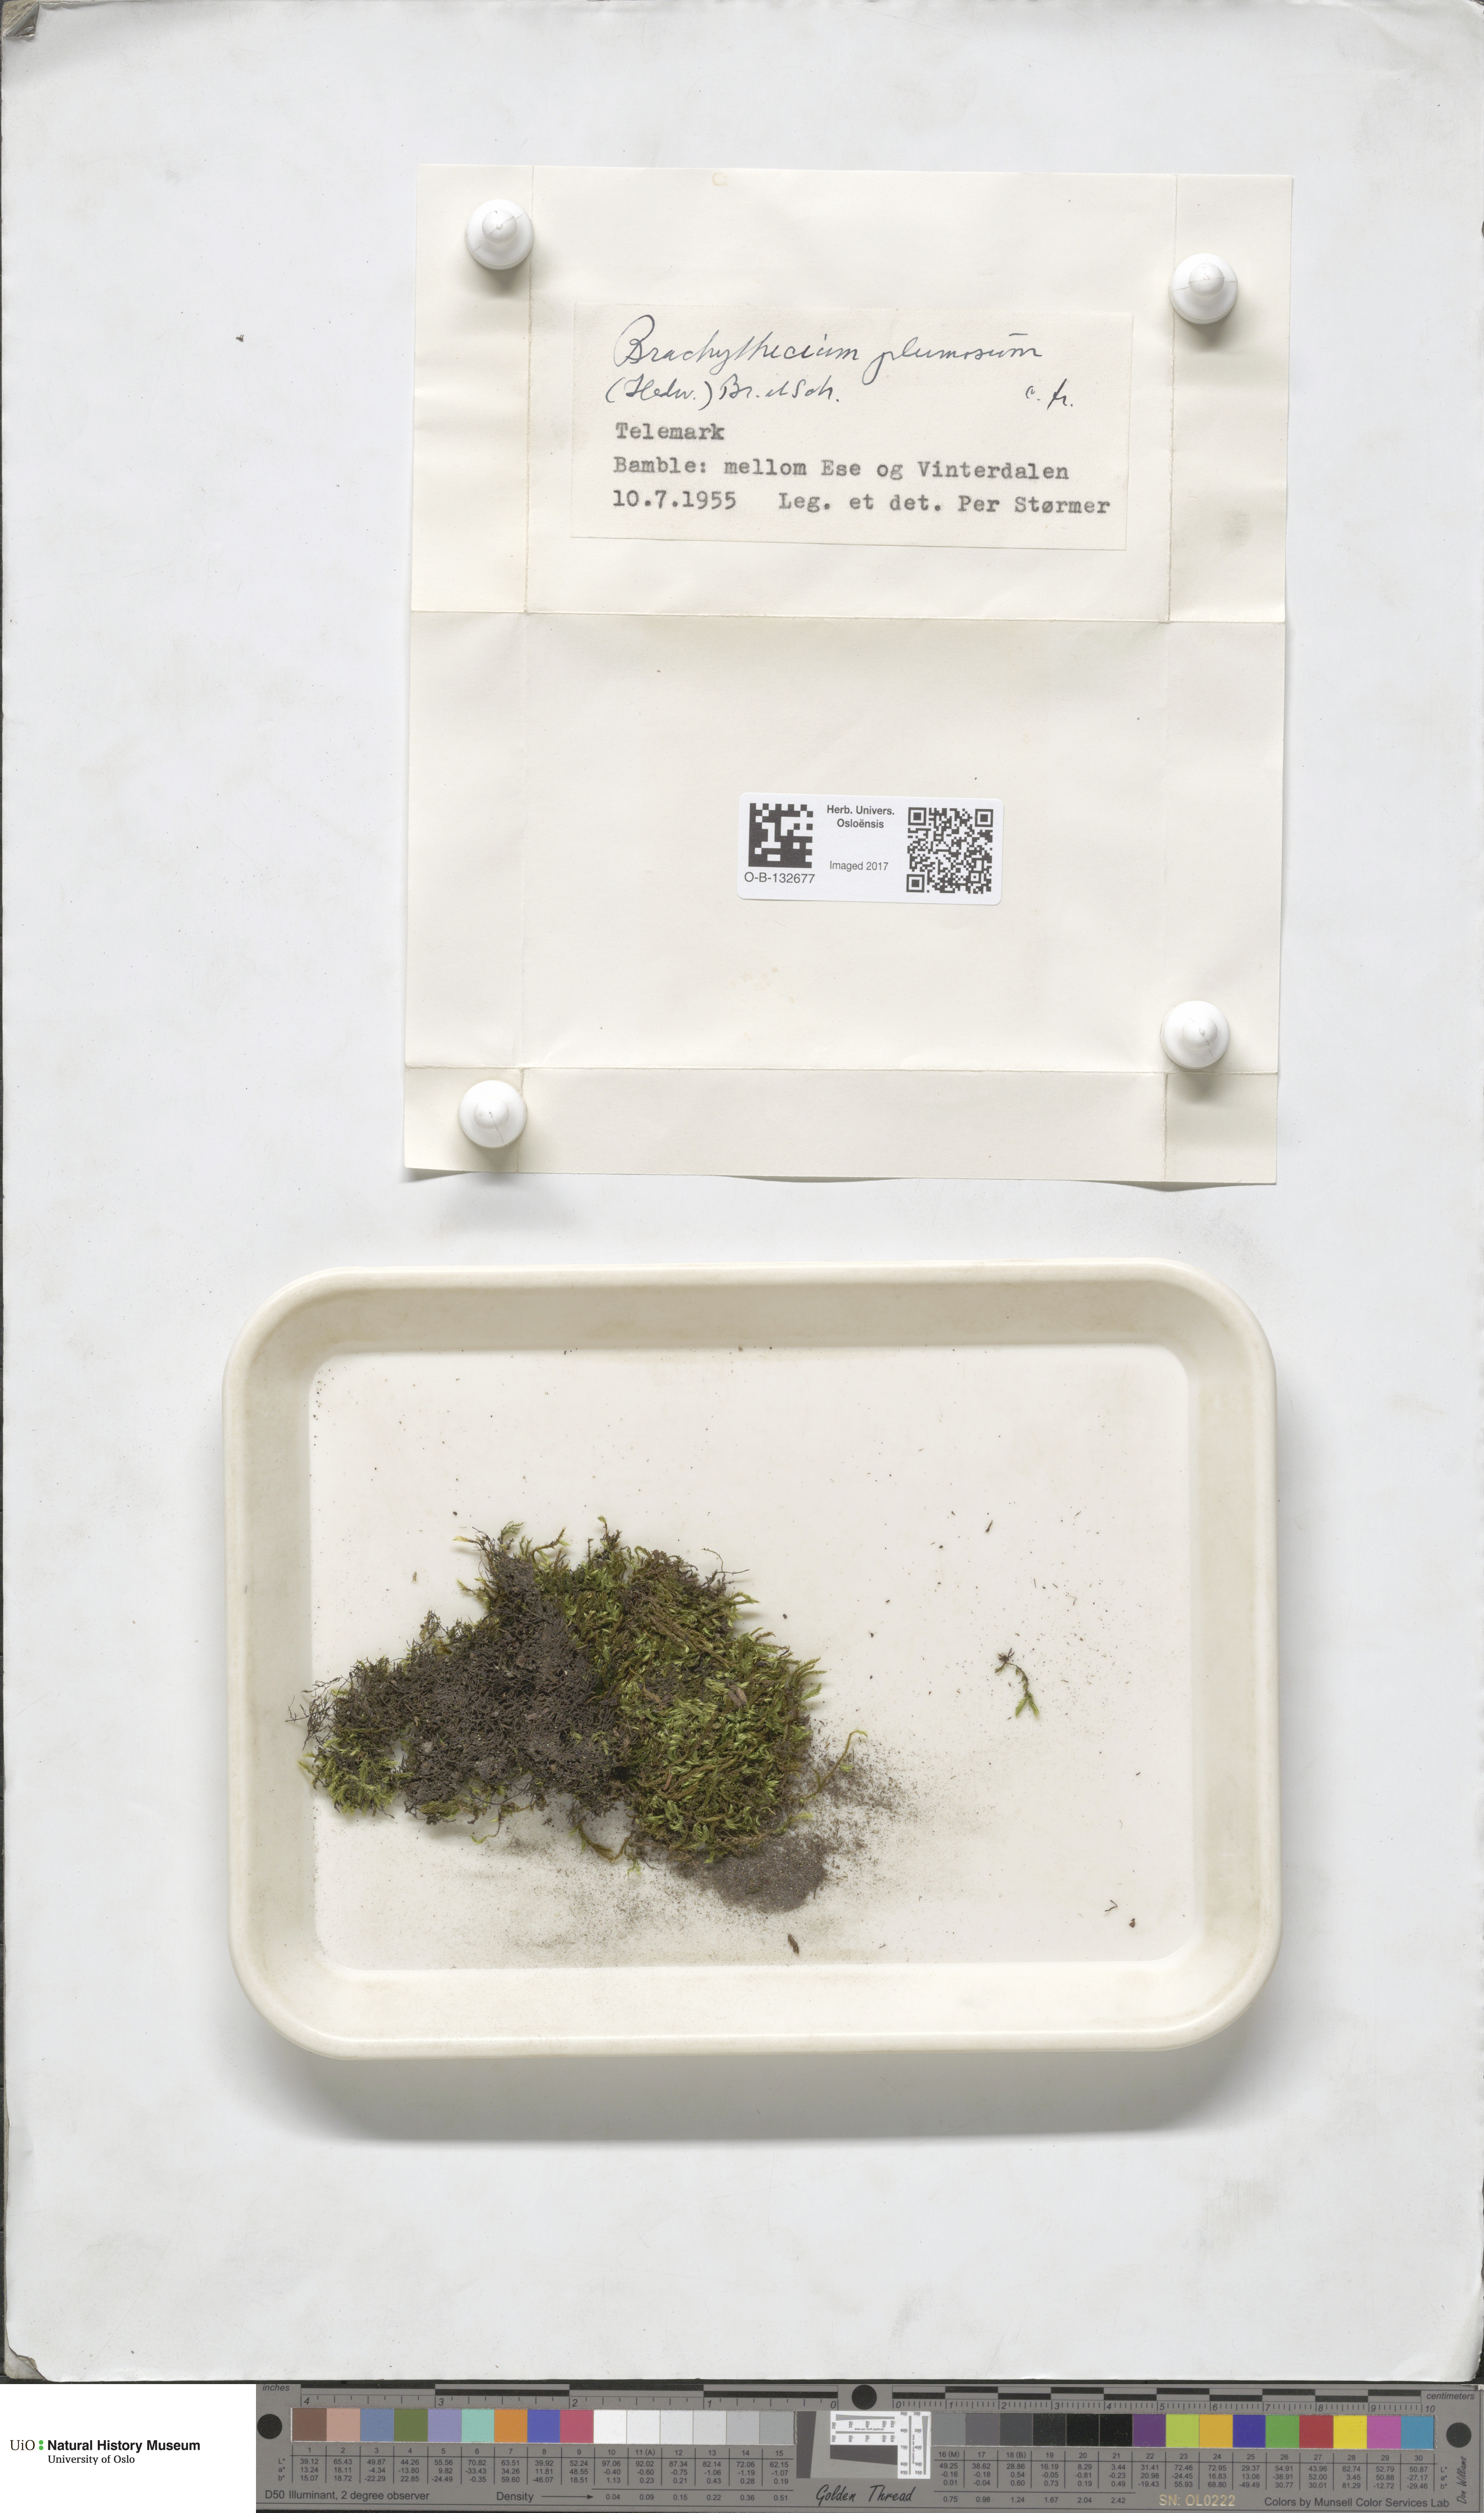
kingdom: Plantae
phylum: Bryophyta
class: Bryopsida
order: Hypnales
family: Brachytheciaceae
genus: Sciuro-hypnum
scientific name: Sciuro-hypnum plumosum
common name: Rusty feather-moss
